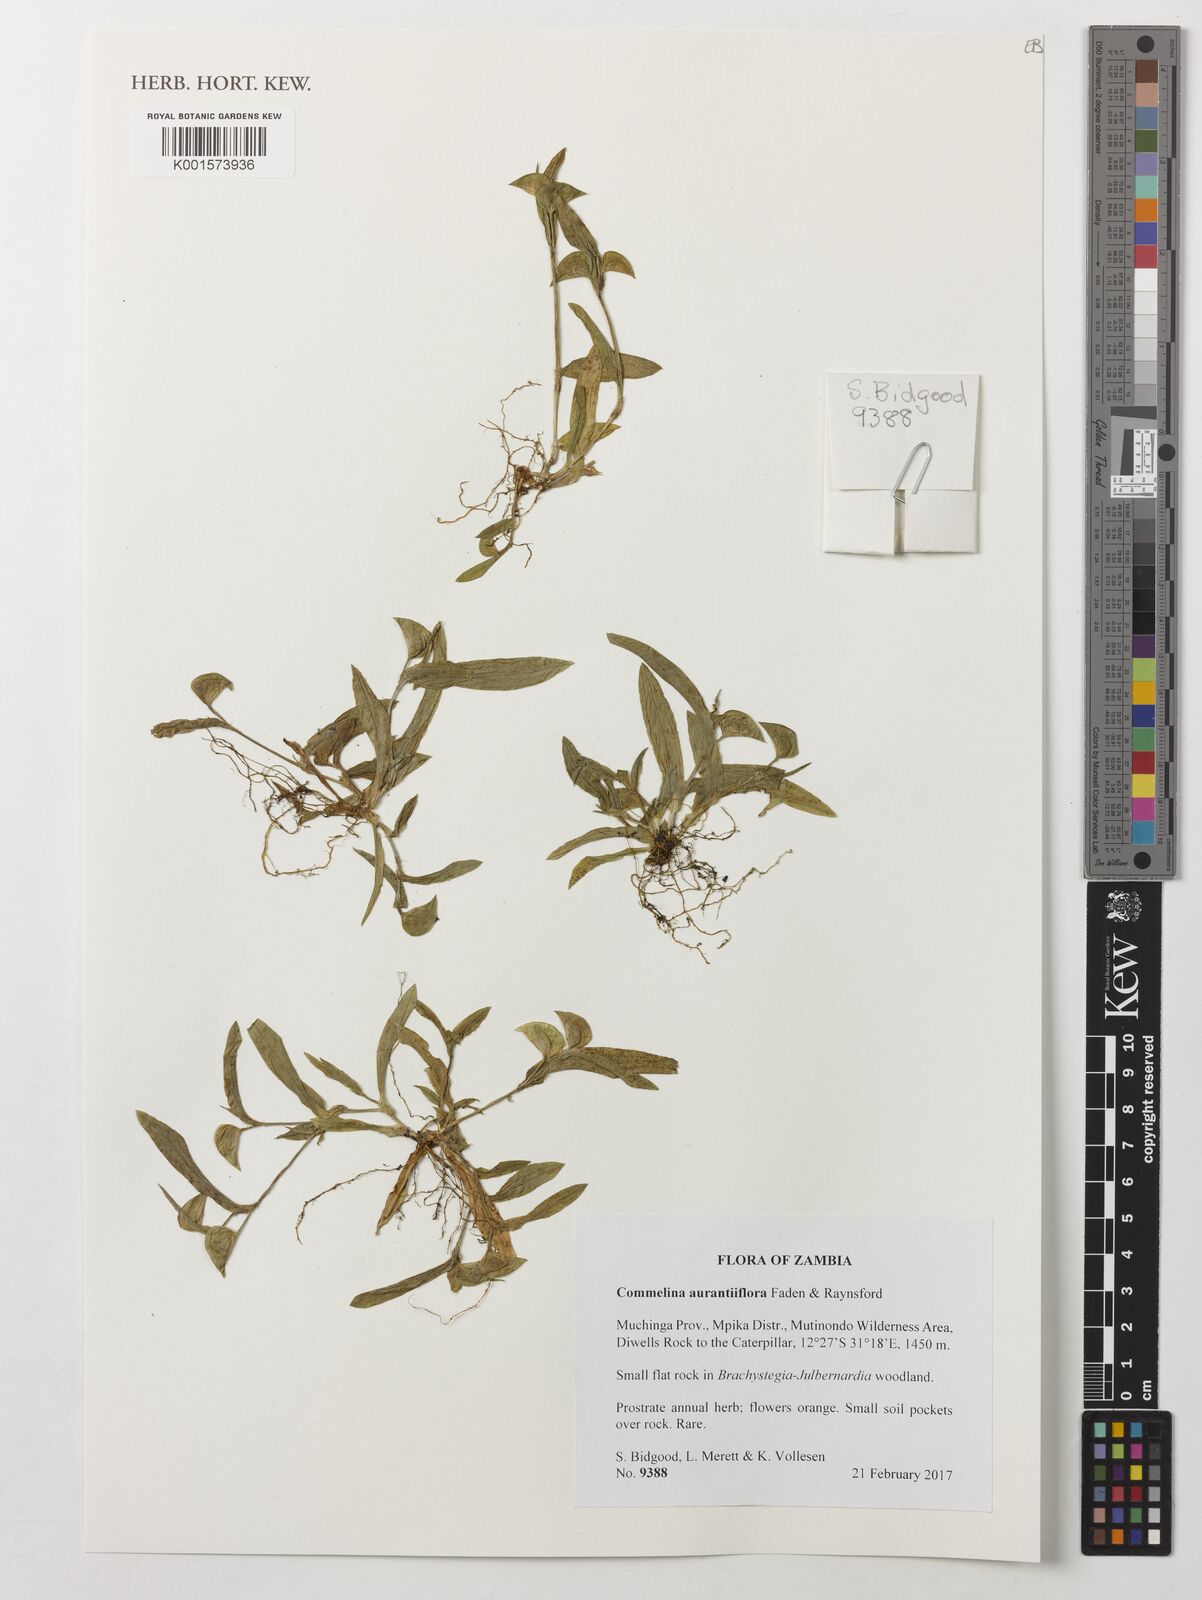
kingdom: Plantae
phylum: Tracheophyta
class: Liliopsida
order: Commelinales
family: Commelinaceae
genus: Commelina
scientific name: Commelina aurantiiflora
